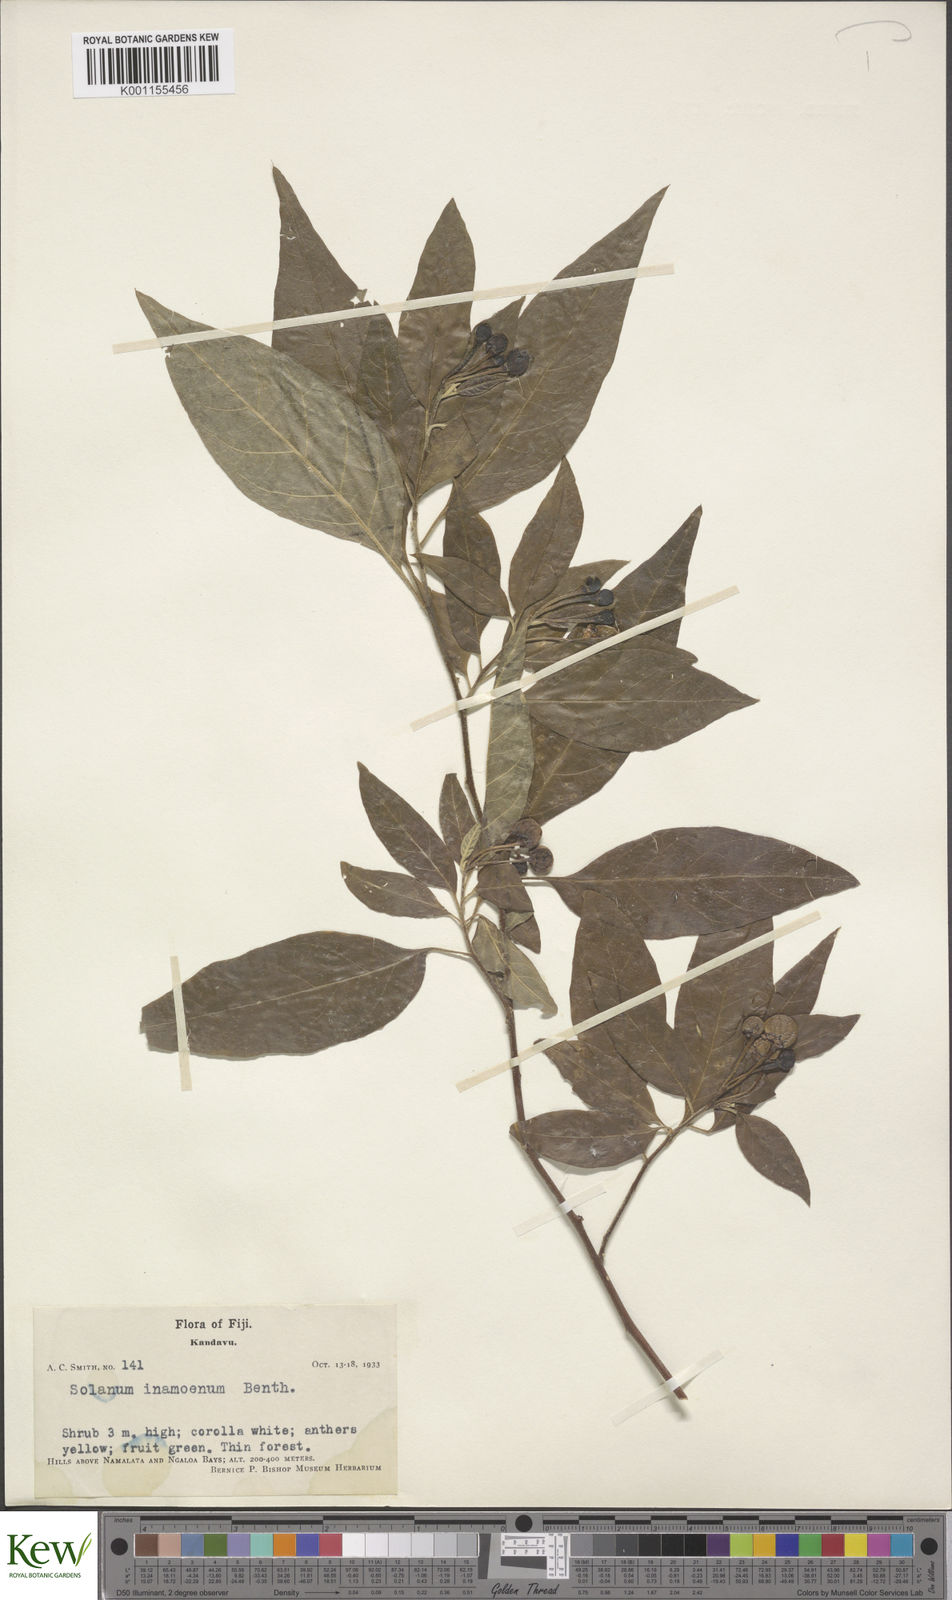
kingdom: Plantae
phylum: Tracheophyta
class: Magnoliopsida
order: Solanales
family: Solanaceae
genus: Solanum
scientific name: Solanum inamoenum
